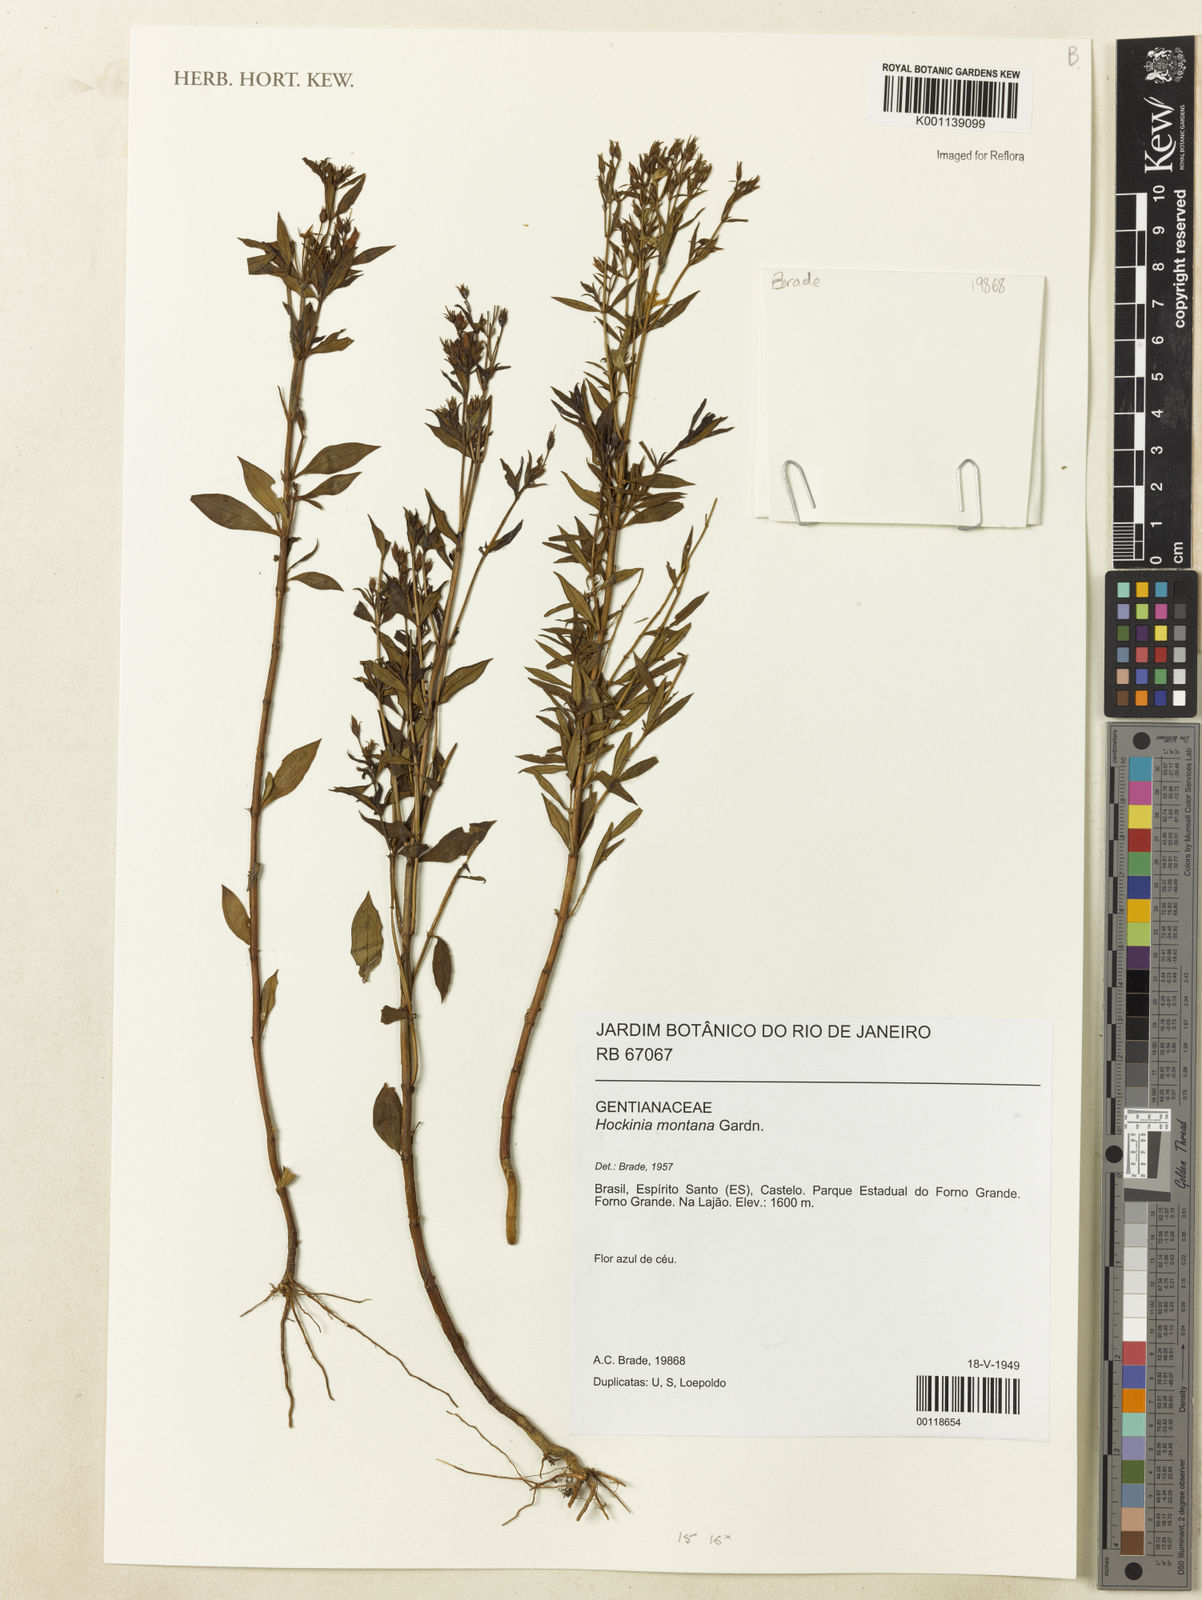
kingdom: Plantae
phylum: Tracheophyta
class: Magnoliopsida
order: Gentianales
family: Gentianaceae
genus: Hockinia
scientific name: Hockinia montana
